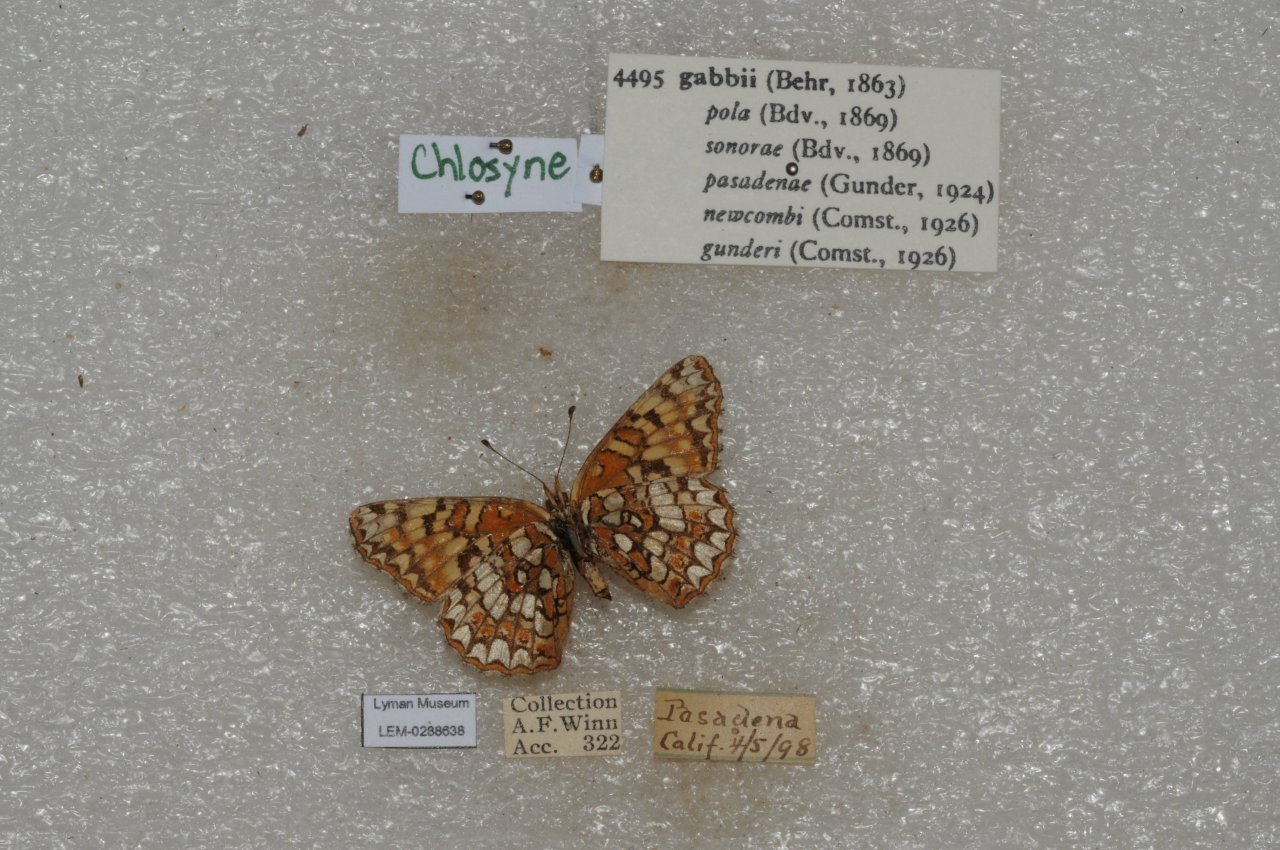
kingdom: Animalia
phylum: Arthropoda
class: Insecta
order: Lepidoptera
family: Nymphalidae
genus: Chlosyne
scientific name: Chlosyne gabbii
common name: Gabb's Checkerspot
